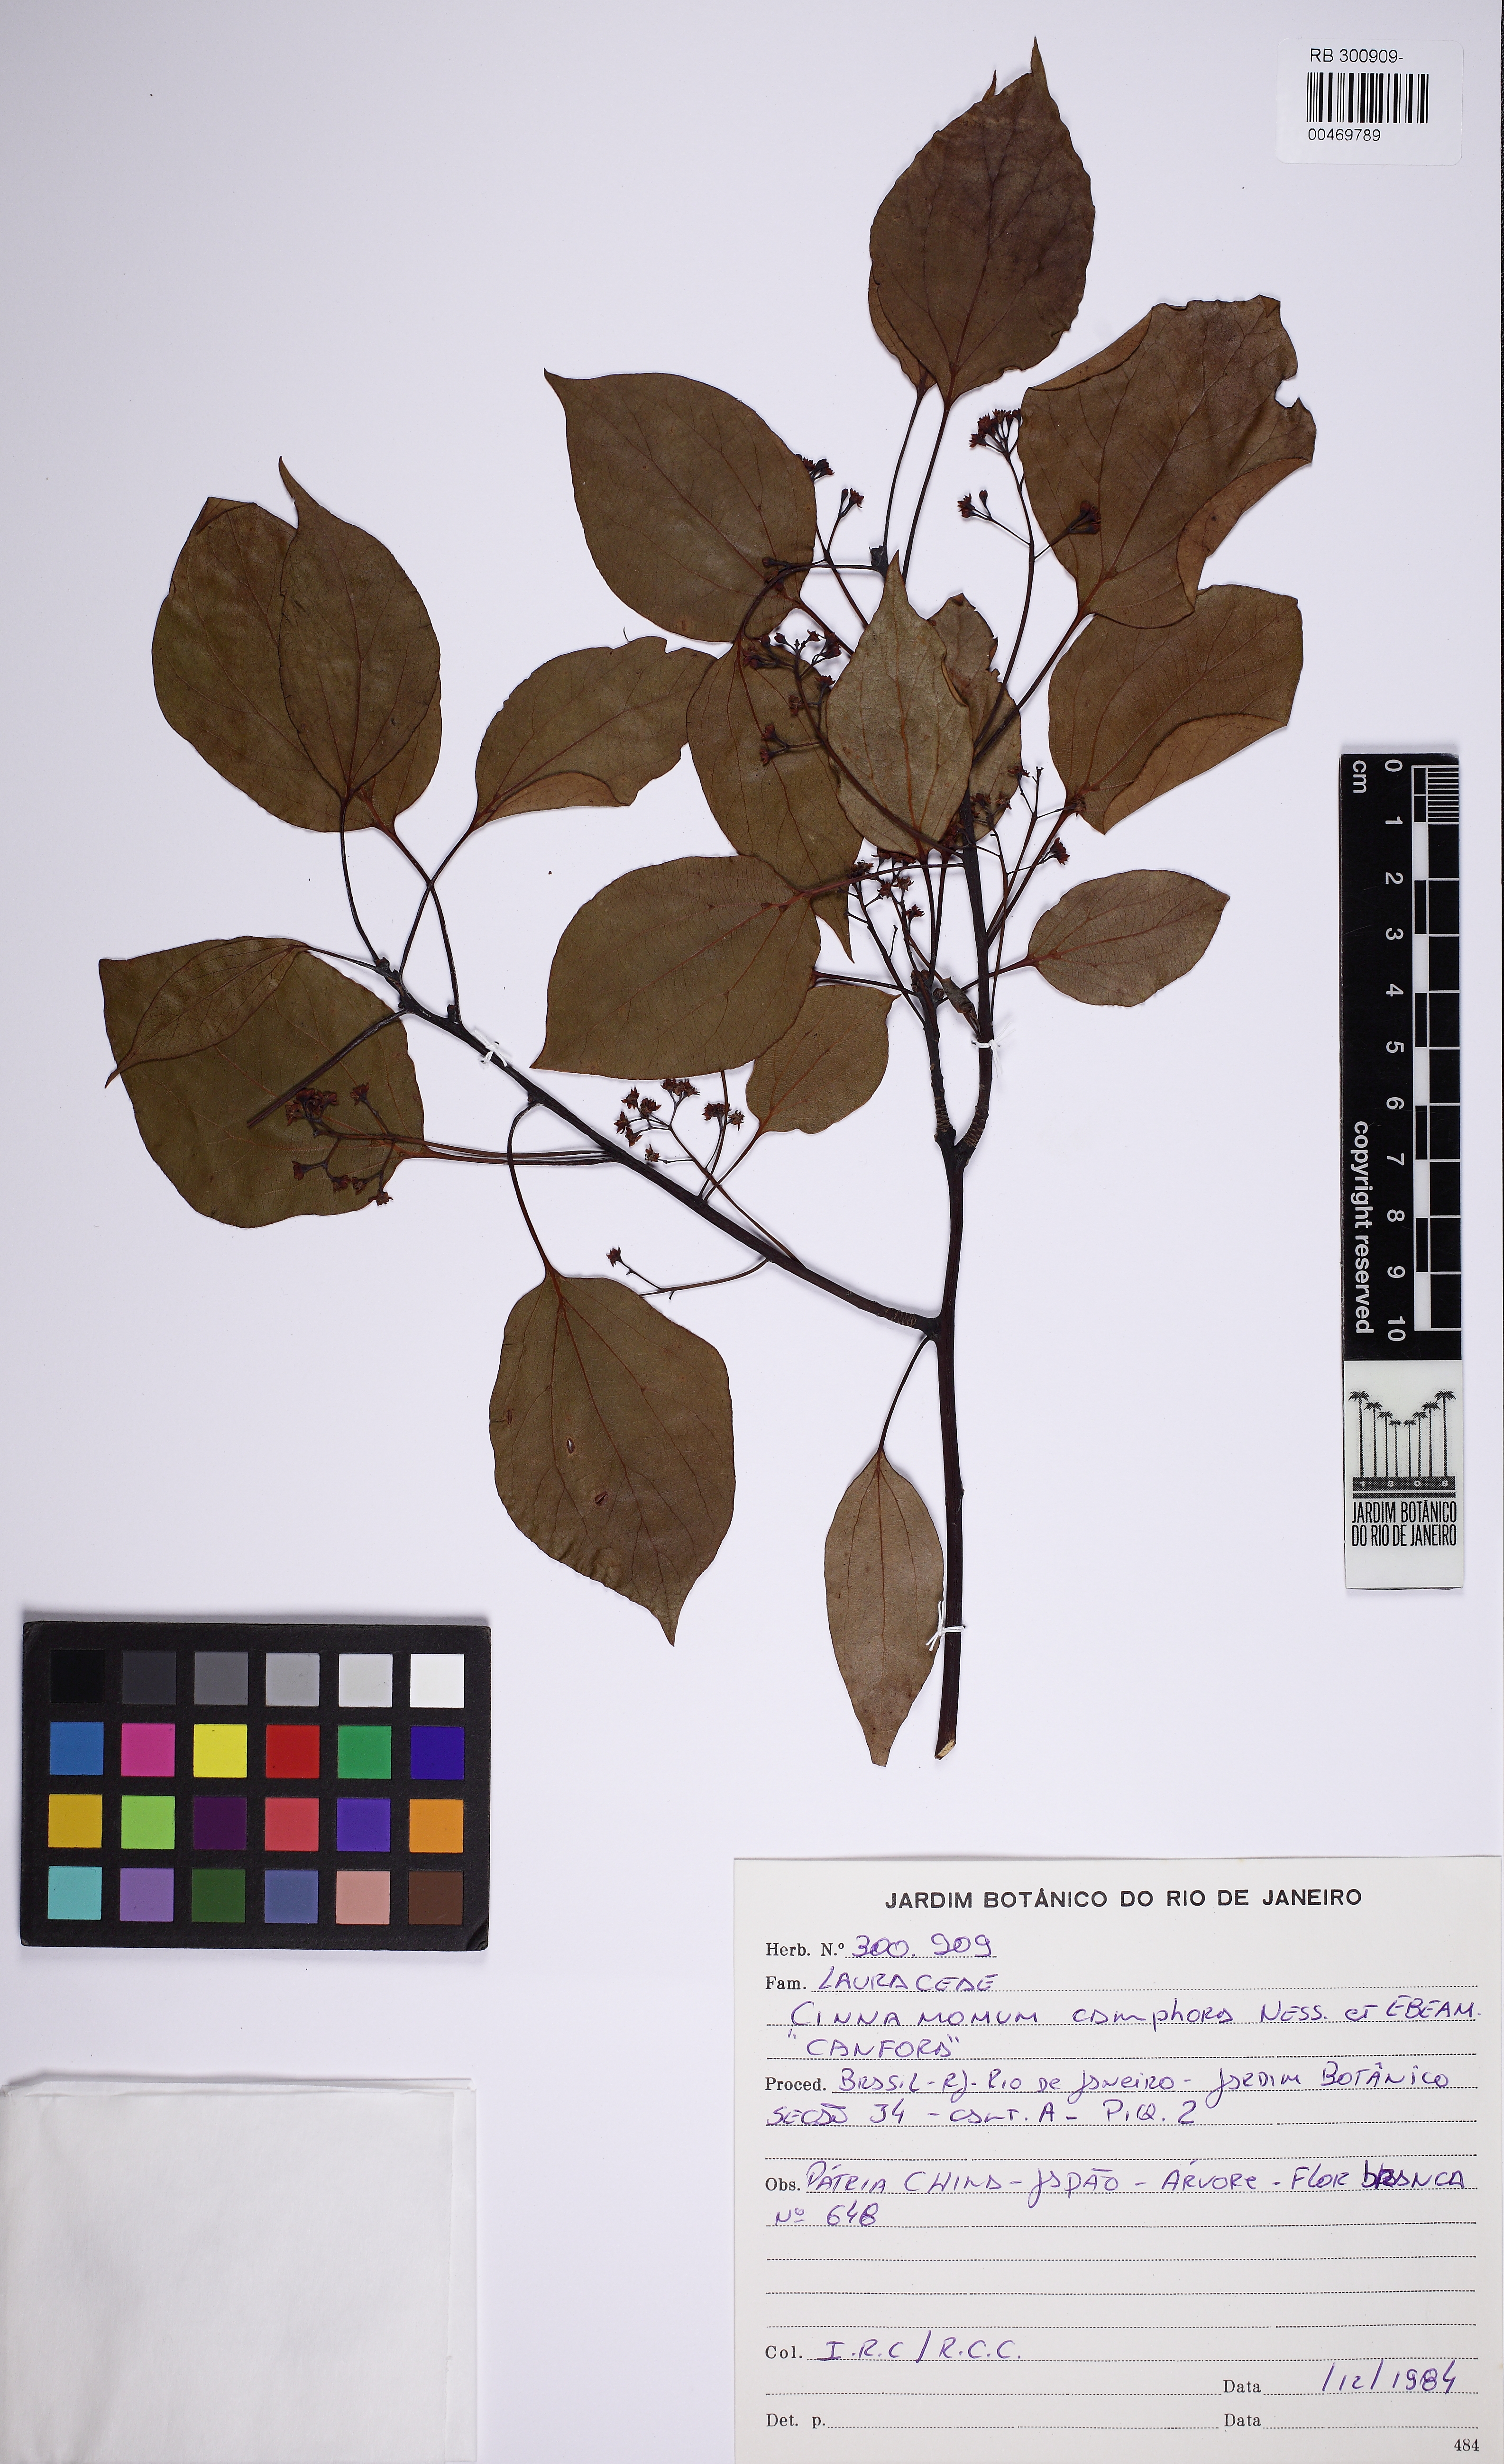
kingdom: Plantae
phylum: Tracheophyta
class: Magnoliopsida
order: Laurales
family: Lauraceae
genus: Cinnamomum
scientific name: Cinnamomum camphora
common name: Camphortree
